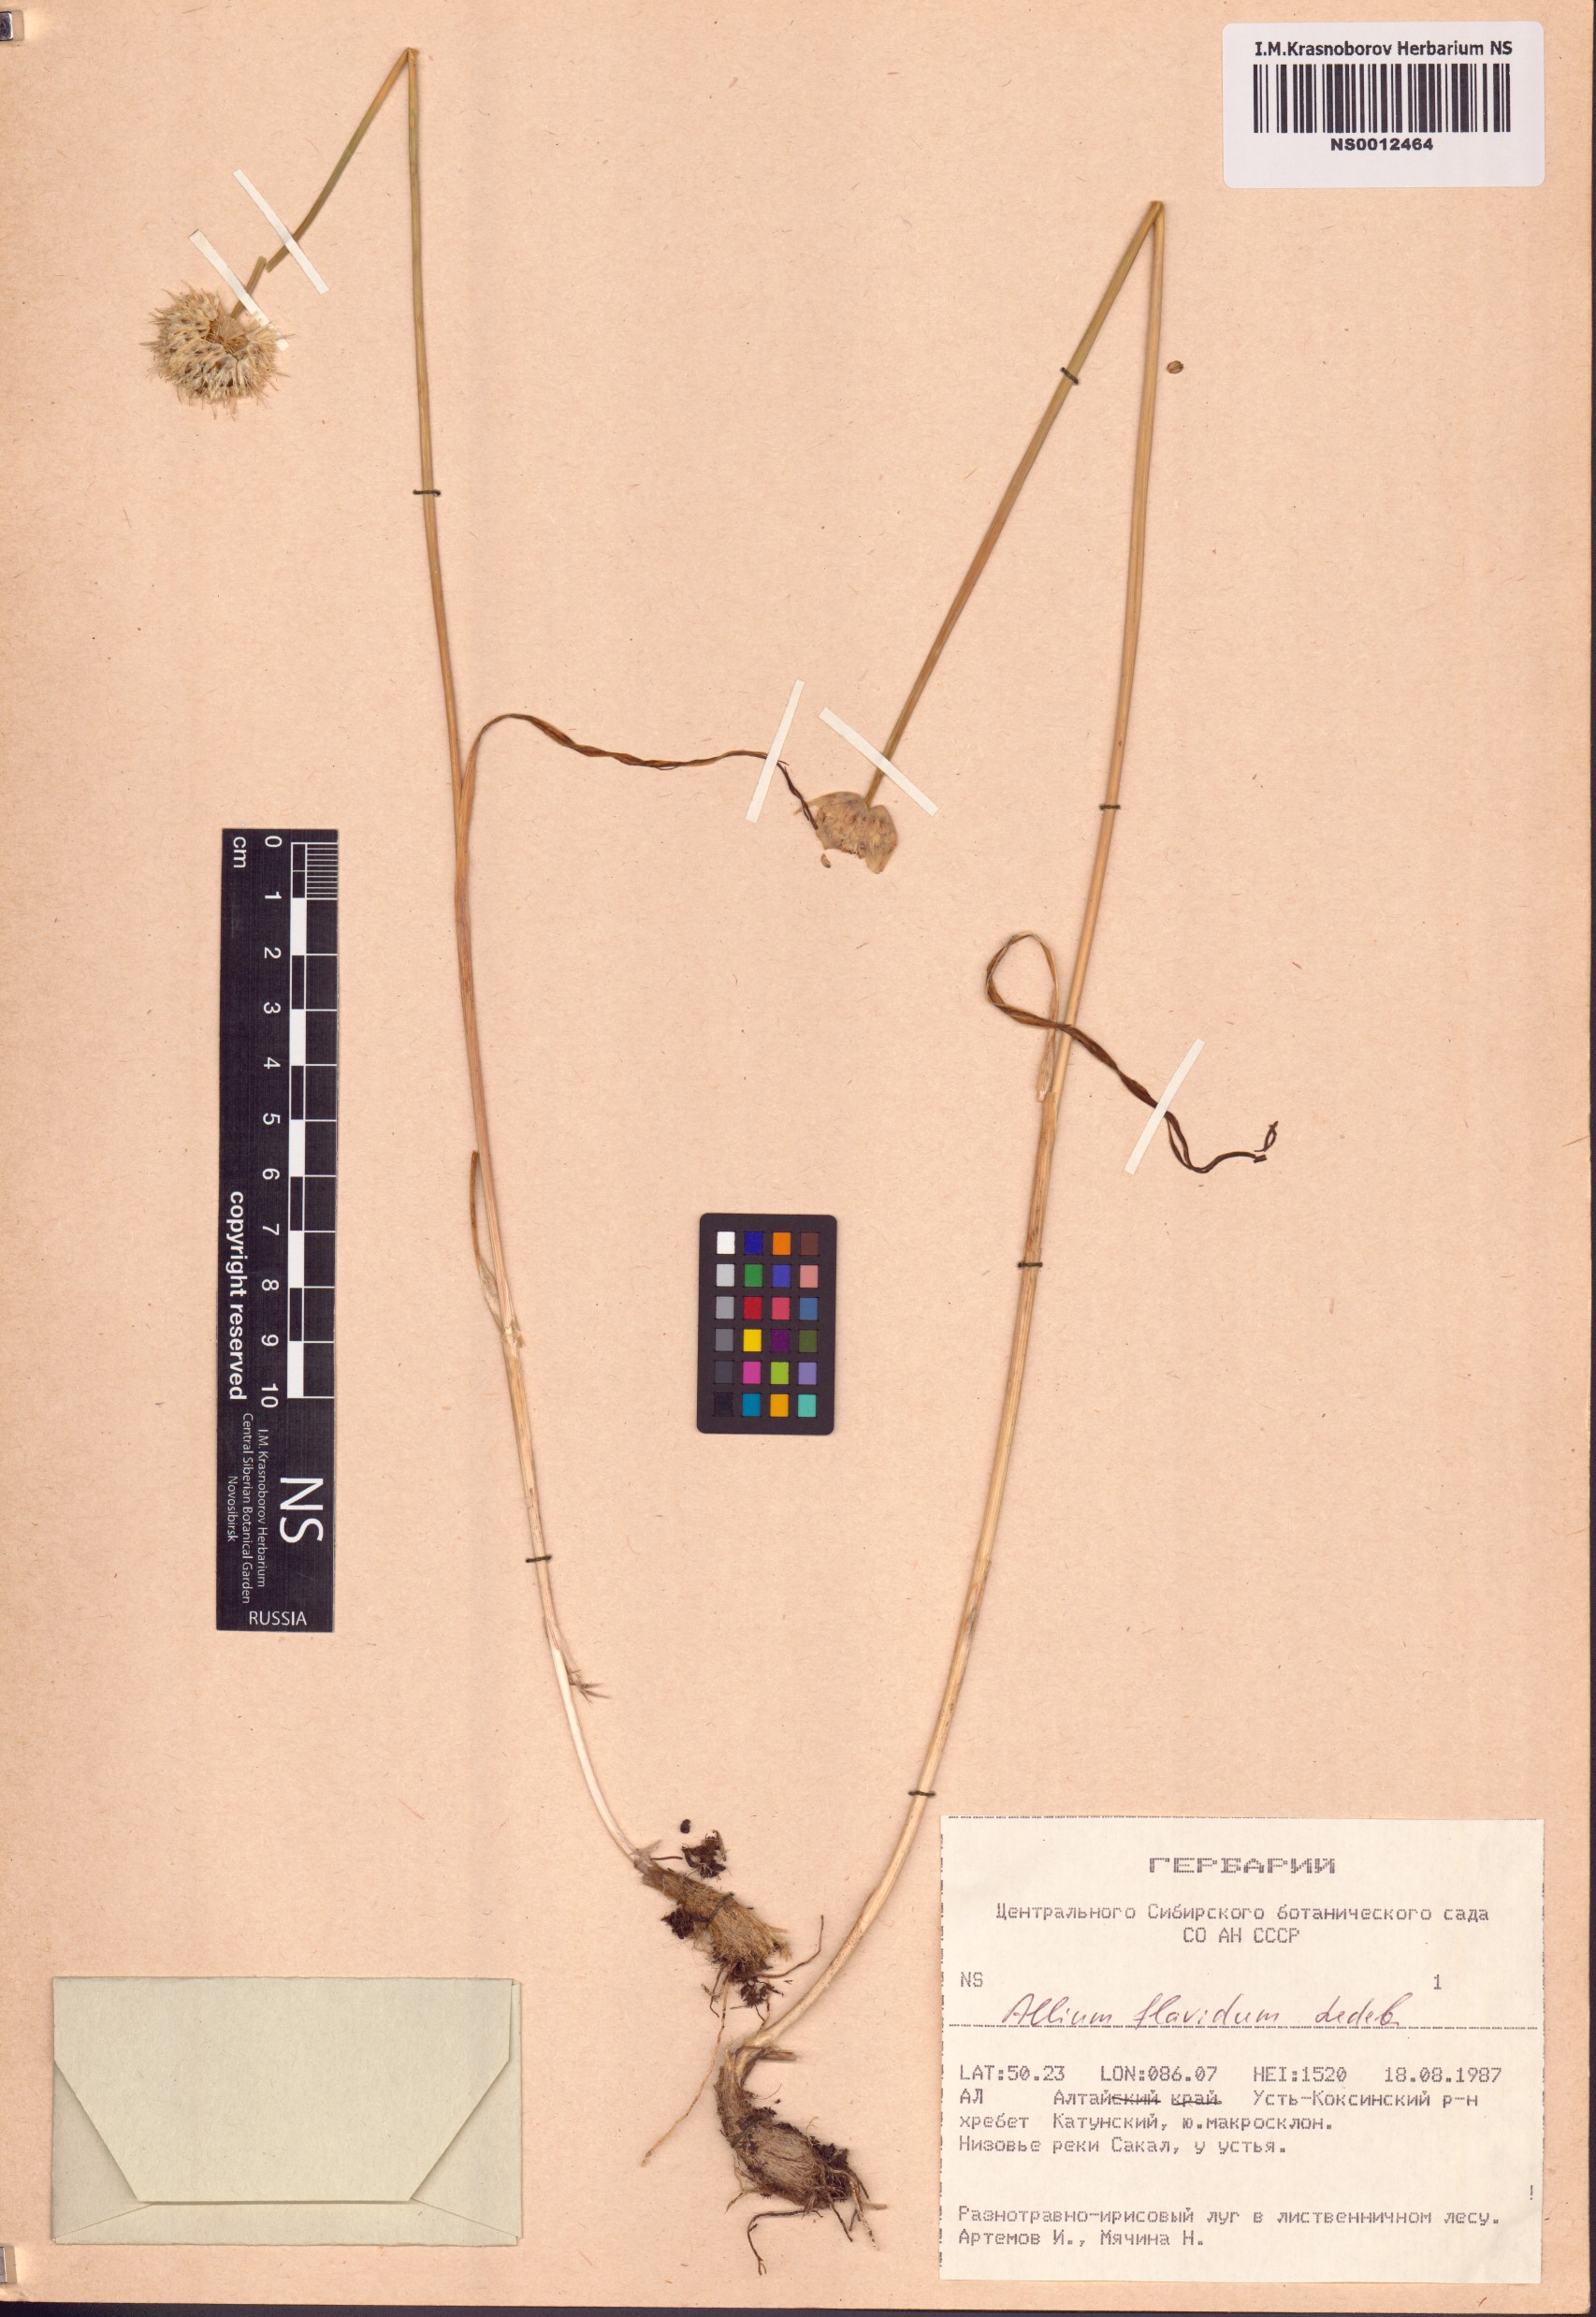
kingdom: Plantae
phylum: Tracheophyta
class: Liliopsida
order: Asparagales
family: Amaryllidaceae
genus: Allium
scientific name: Allium flavidum
